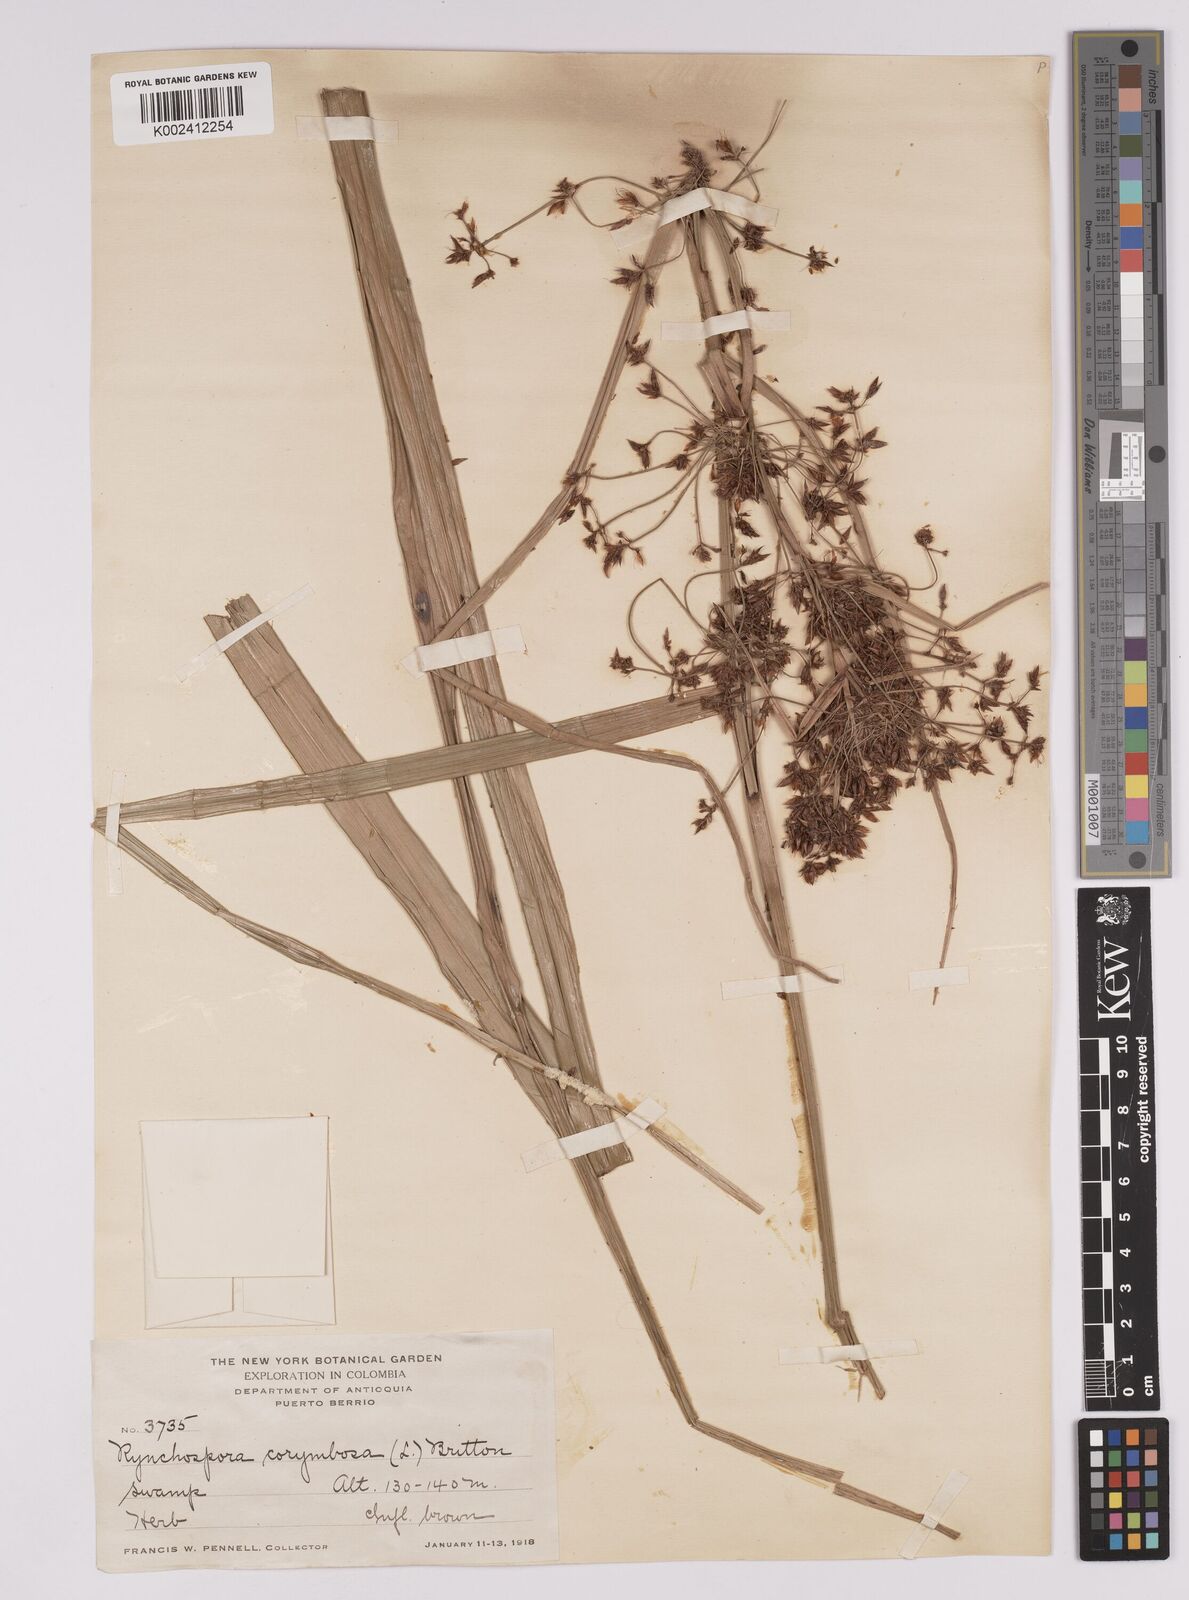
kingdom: Plantae
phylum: Tracheophyta
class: Liliopsida
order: Poales
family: Cyperaceae
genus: Rhynchospora
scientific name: Rhynchospora corymbosa
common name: Golden beak sedge
